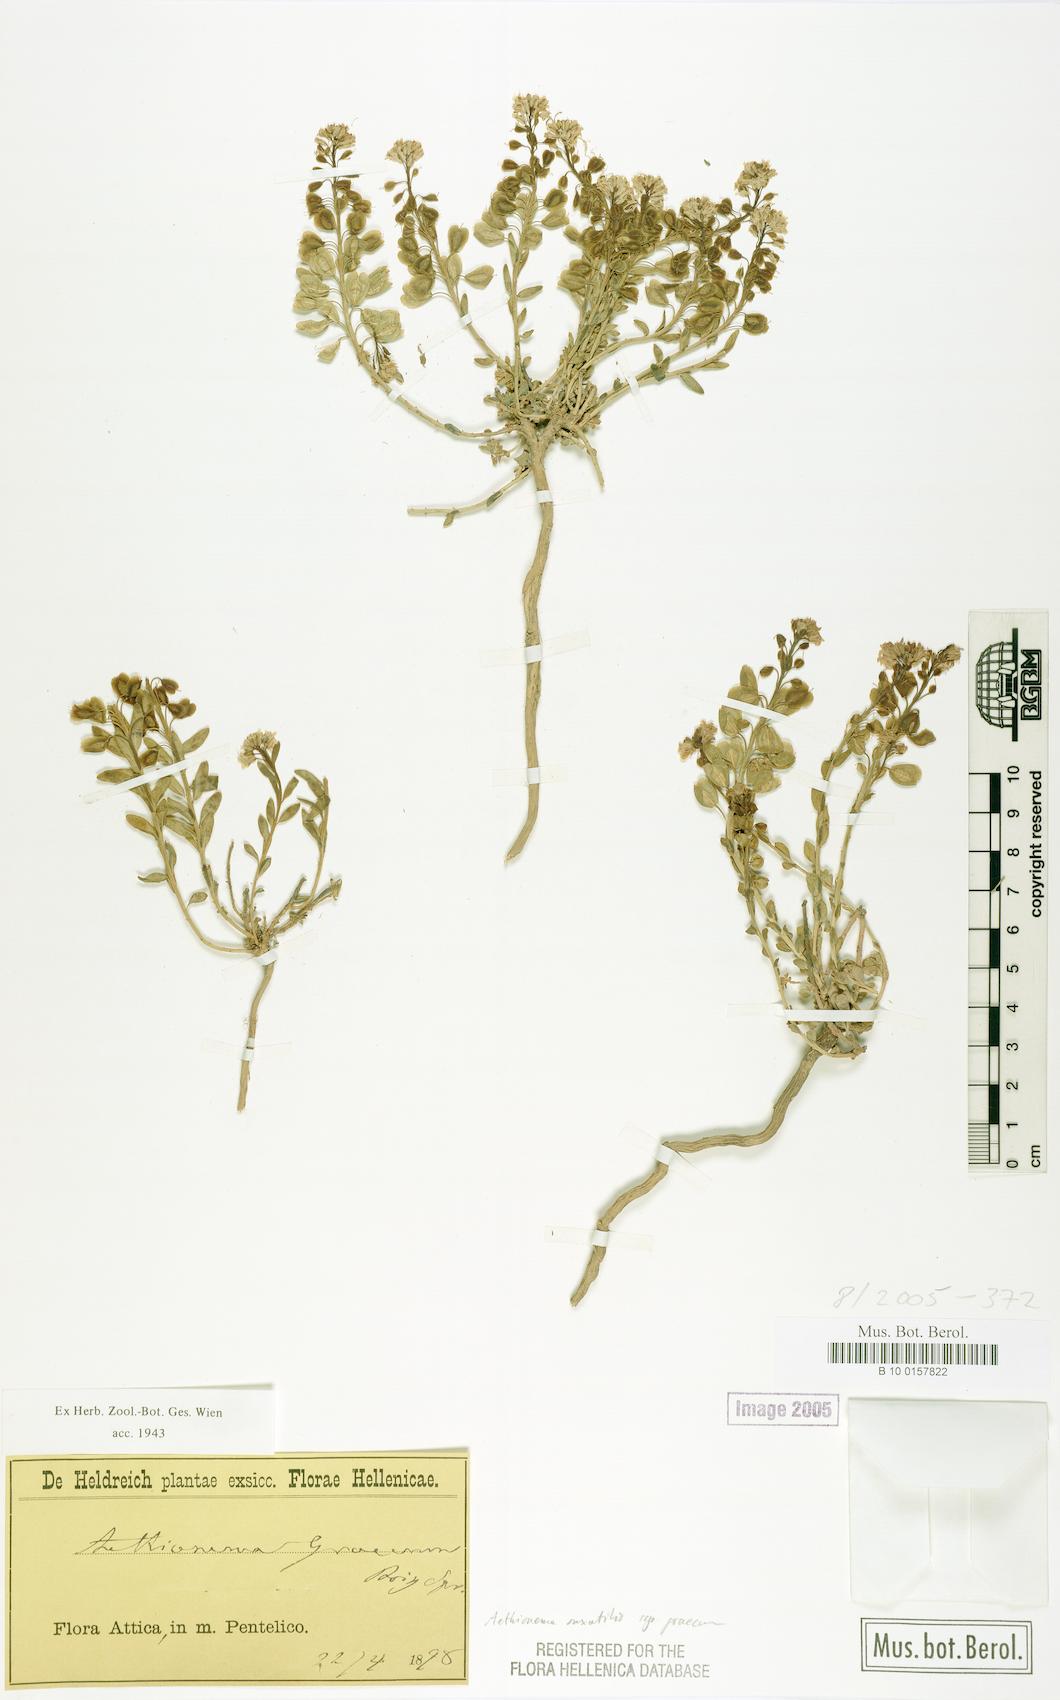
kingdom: Plantae
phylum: Tracheophyta
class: Magnoliopsida
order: Brassicales
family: Brassicaceae
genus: Aethionema
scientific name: Aethionema saxatile
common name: Burnt candytuft
